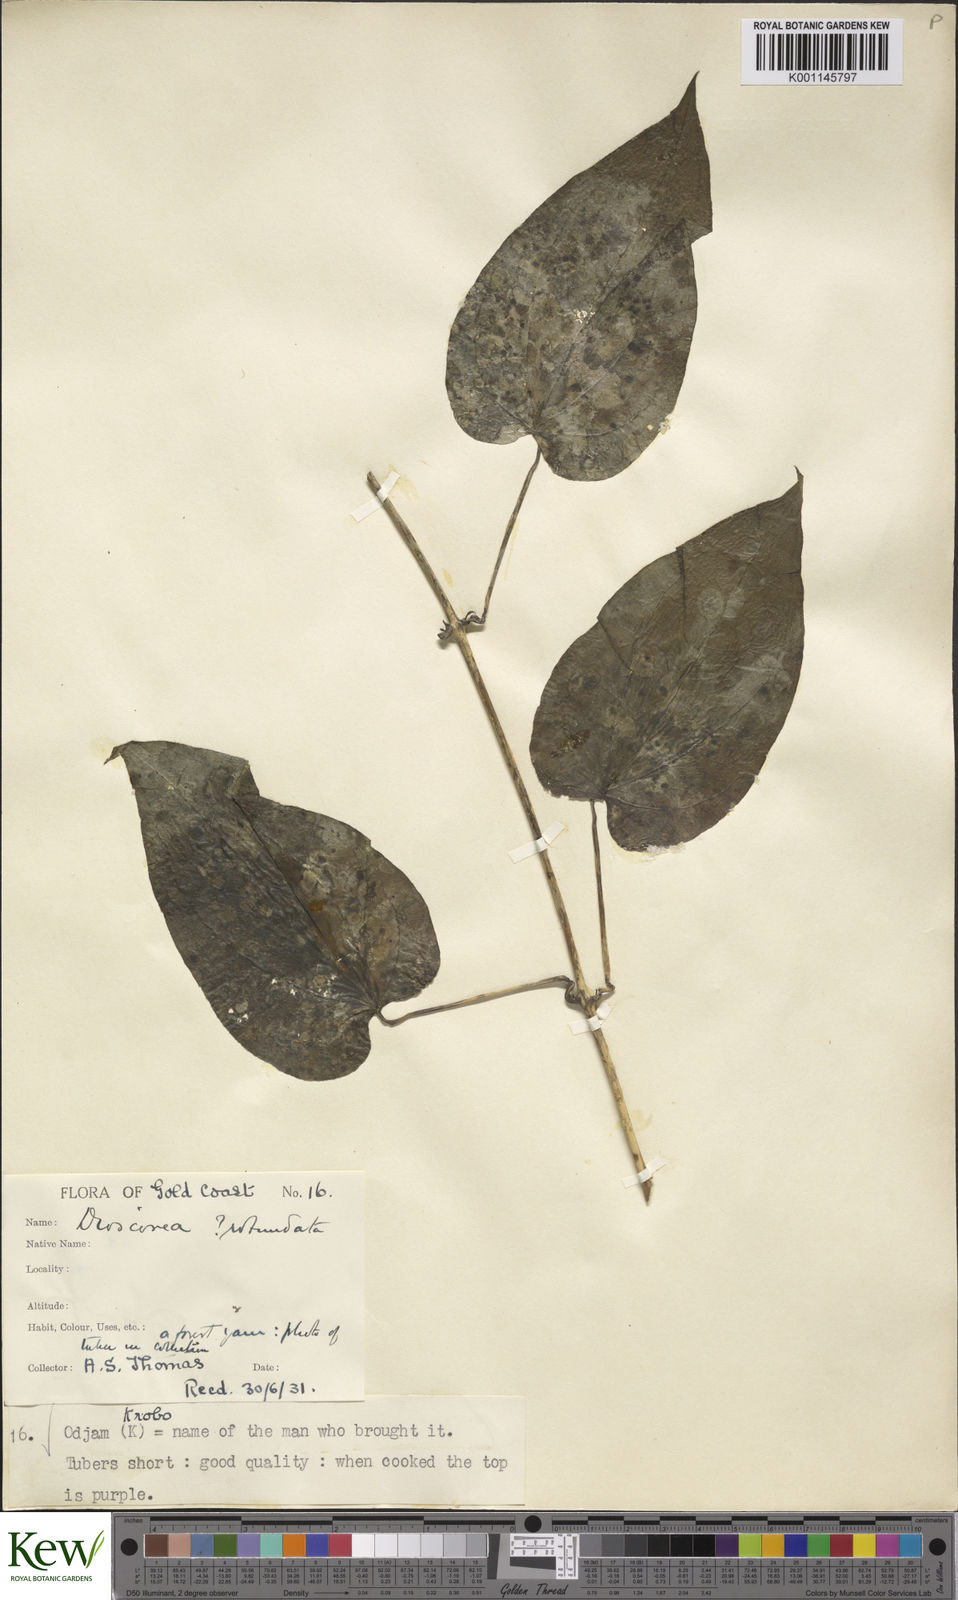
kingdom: Plantae
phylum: Tracheophyta
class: Liliopsida
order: Dioscoreales
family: Dioscoreaceae
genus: Dioscorea
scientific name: Dioscorea cayenensis
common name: Attoto yam
